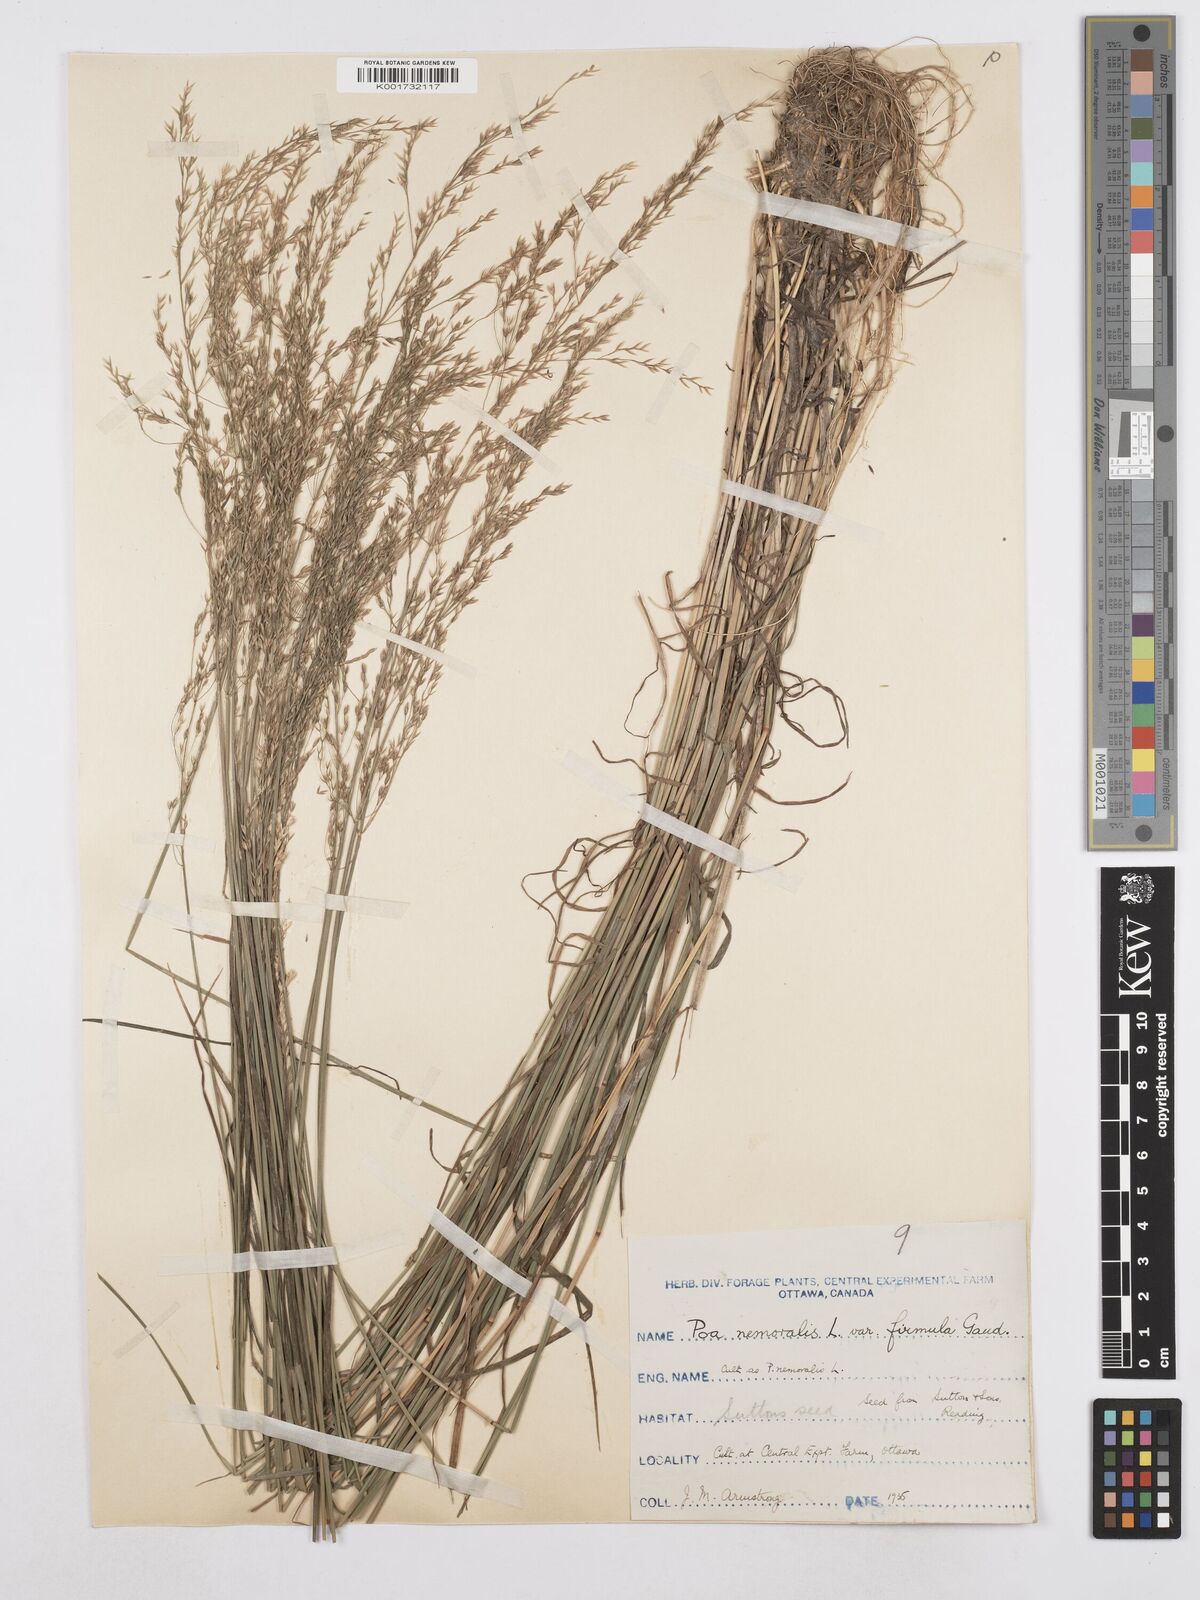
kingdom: Plantae
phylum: Tracheophyta
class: Liliopsida
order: Poales
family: Poaceae
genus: Poa
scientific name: Poa nemoralis
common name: Wood bluegrass
